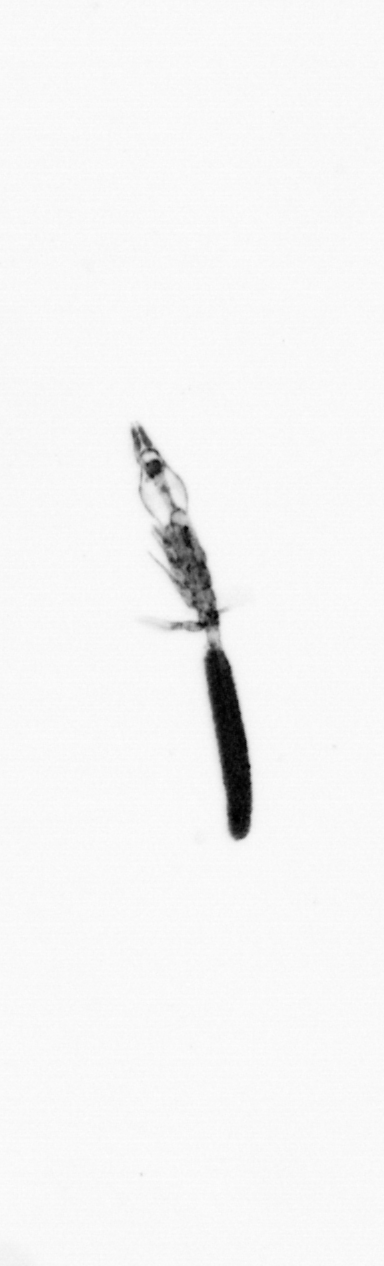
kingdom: Animalia
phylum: Arthropoda
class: Copepoda
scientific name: Copepoda
